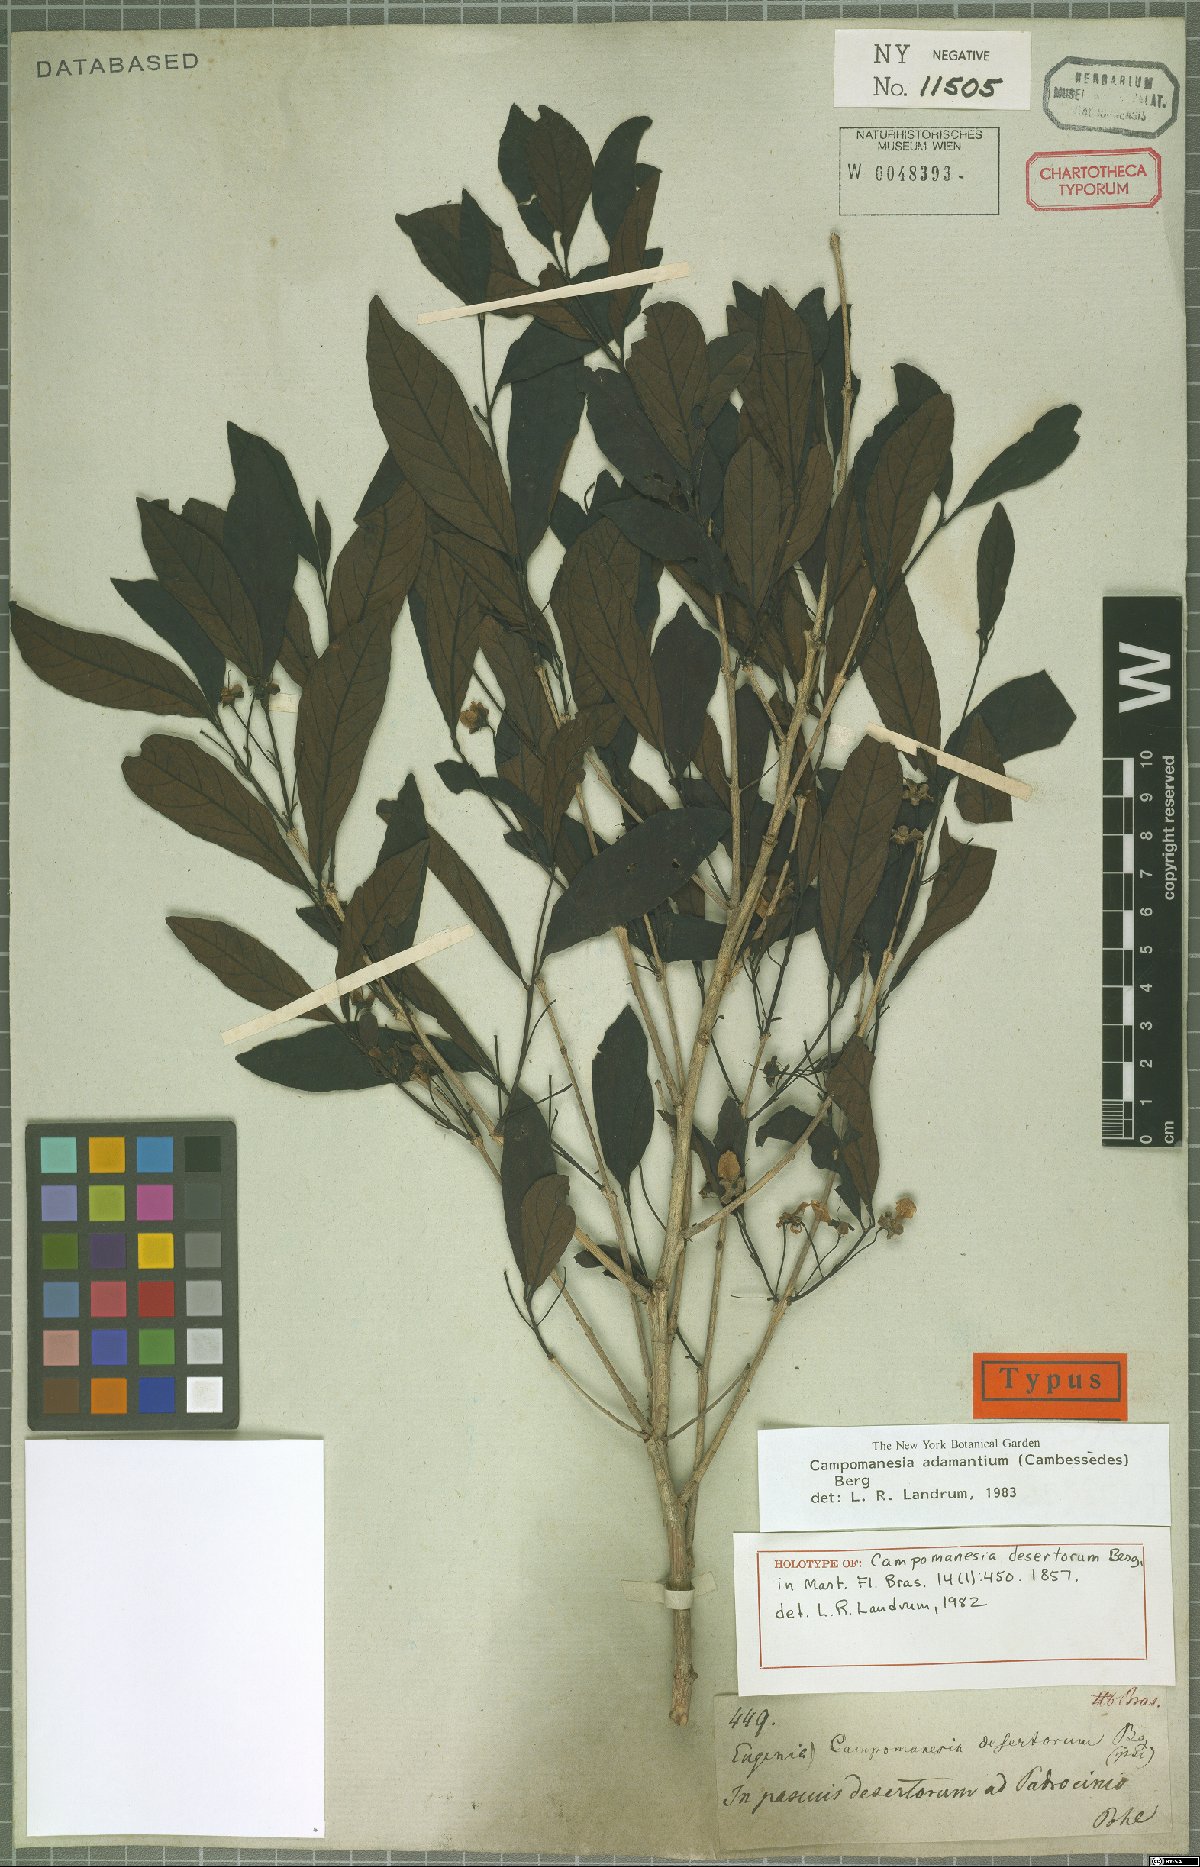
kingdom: Plantae
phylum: Tracheophyta
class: Magnoliopsida
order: Myrtales
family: Myrtaceae
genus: Campomanesia
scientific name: Campomanesia adamantium
